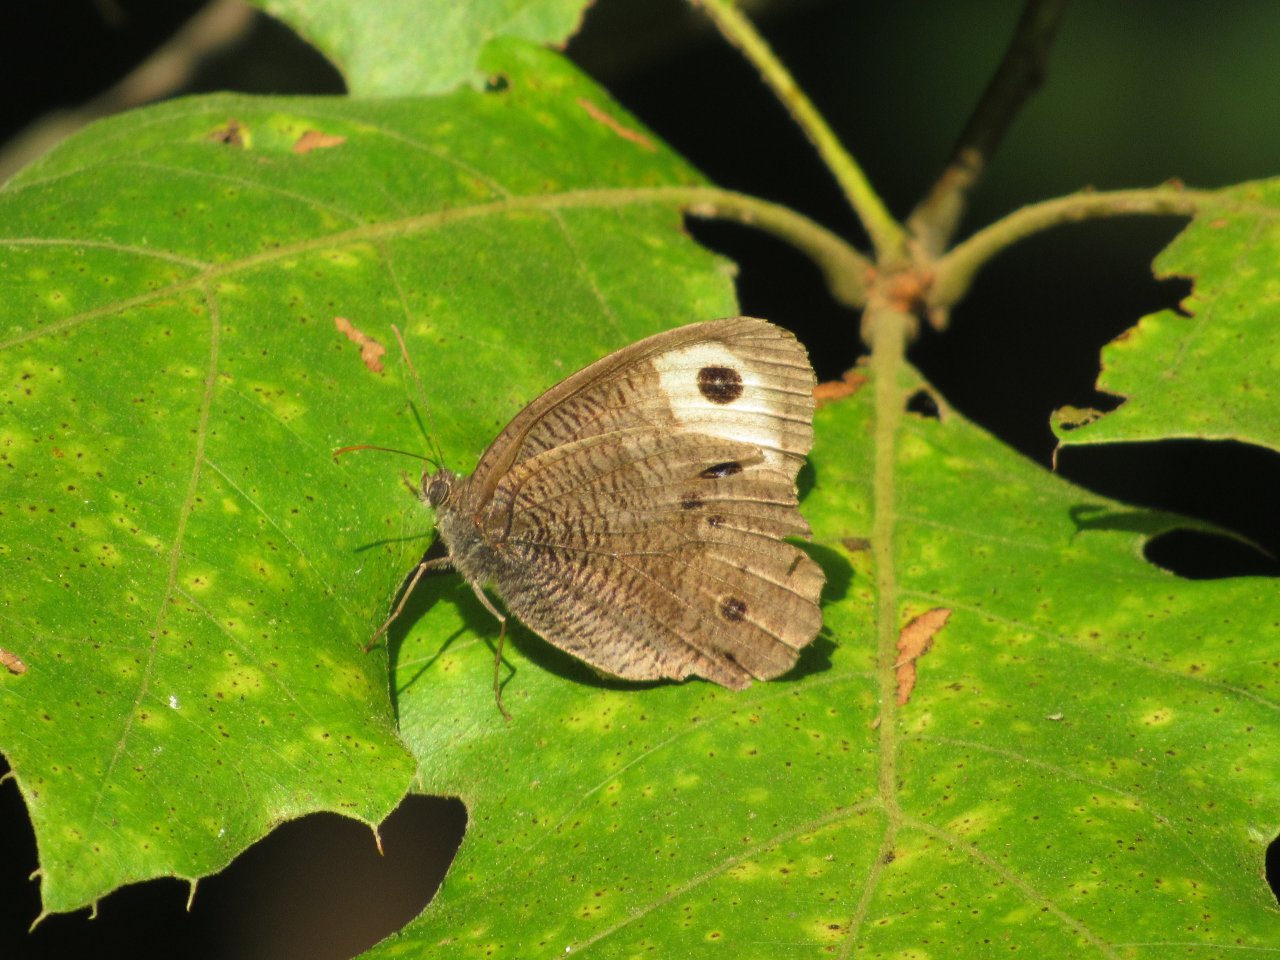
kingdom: Animalia
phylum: Arthropoda
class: Insecta
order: Lepidoptera
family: Nymphalidae
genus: Cercyonis
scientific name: Cercyonis pegala
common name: Common Wood-Nymph
